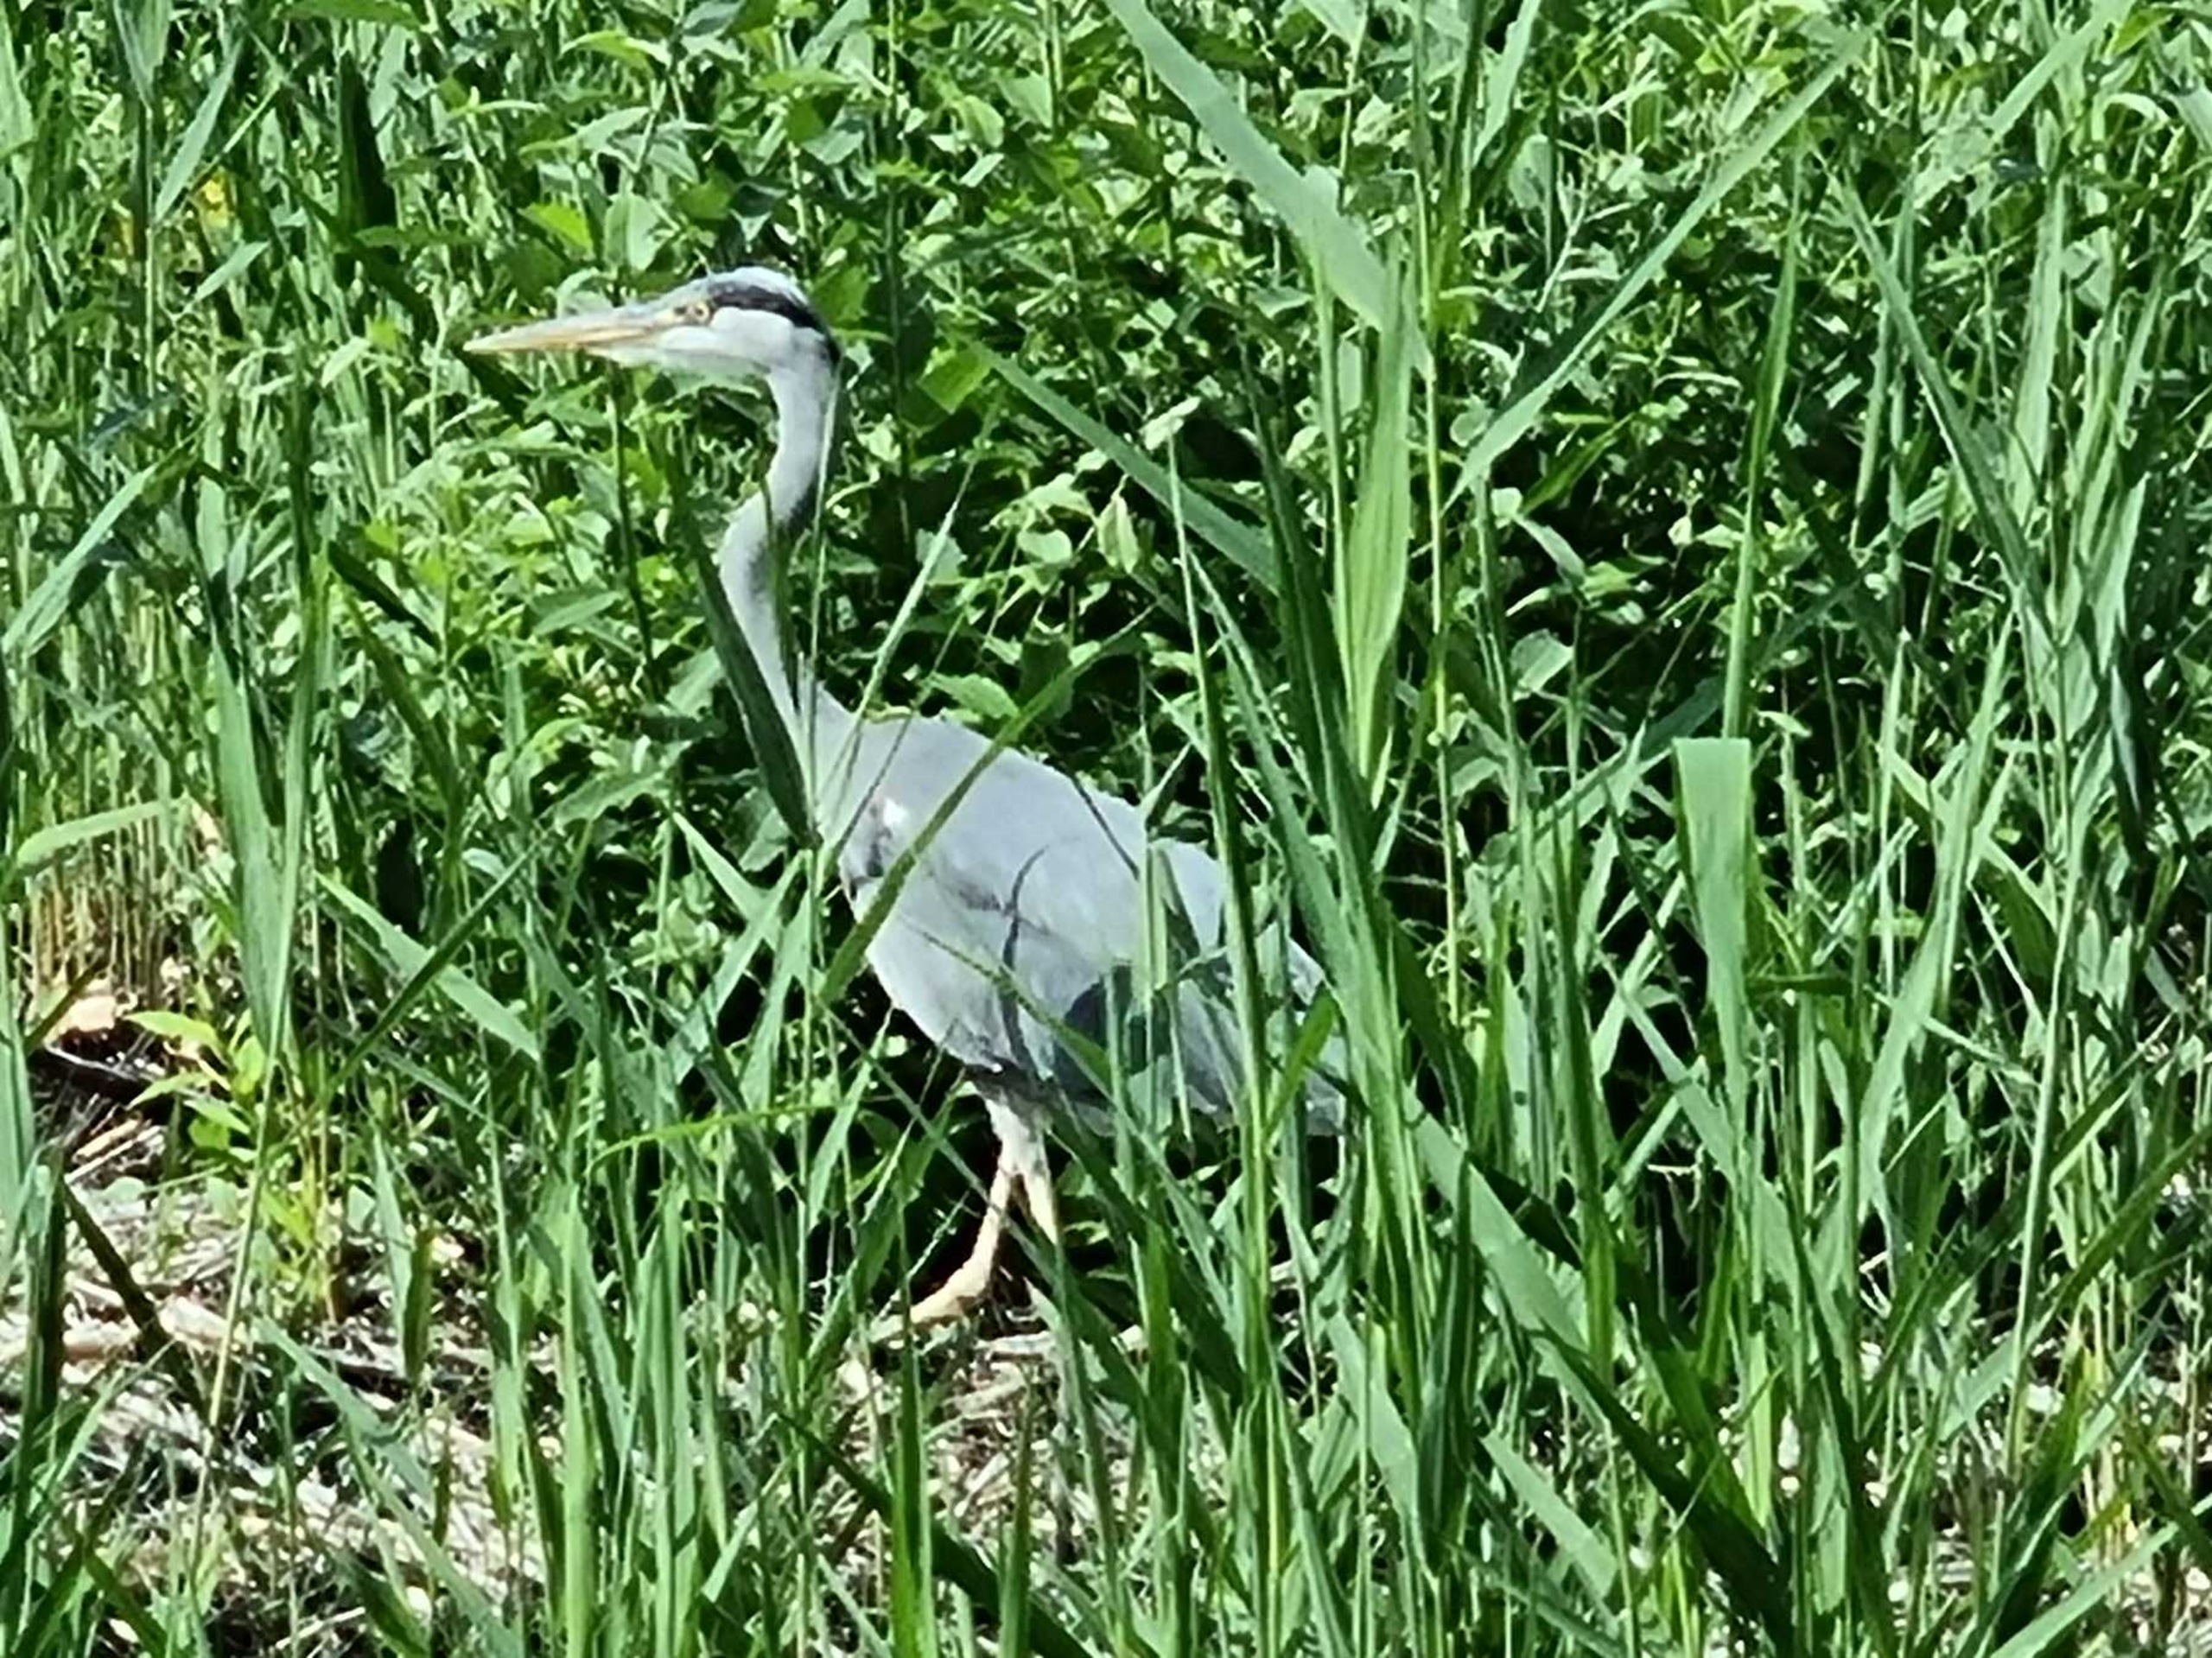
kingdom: Animalia
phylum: Chordata
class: Aves
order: Pelecaniformes
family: Ardeidae
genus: Ardea
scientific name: Ardea cinerea
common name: Fiskehejre
